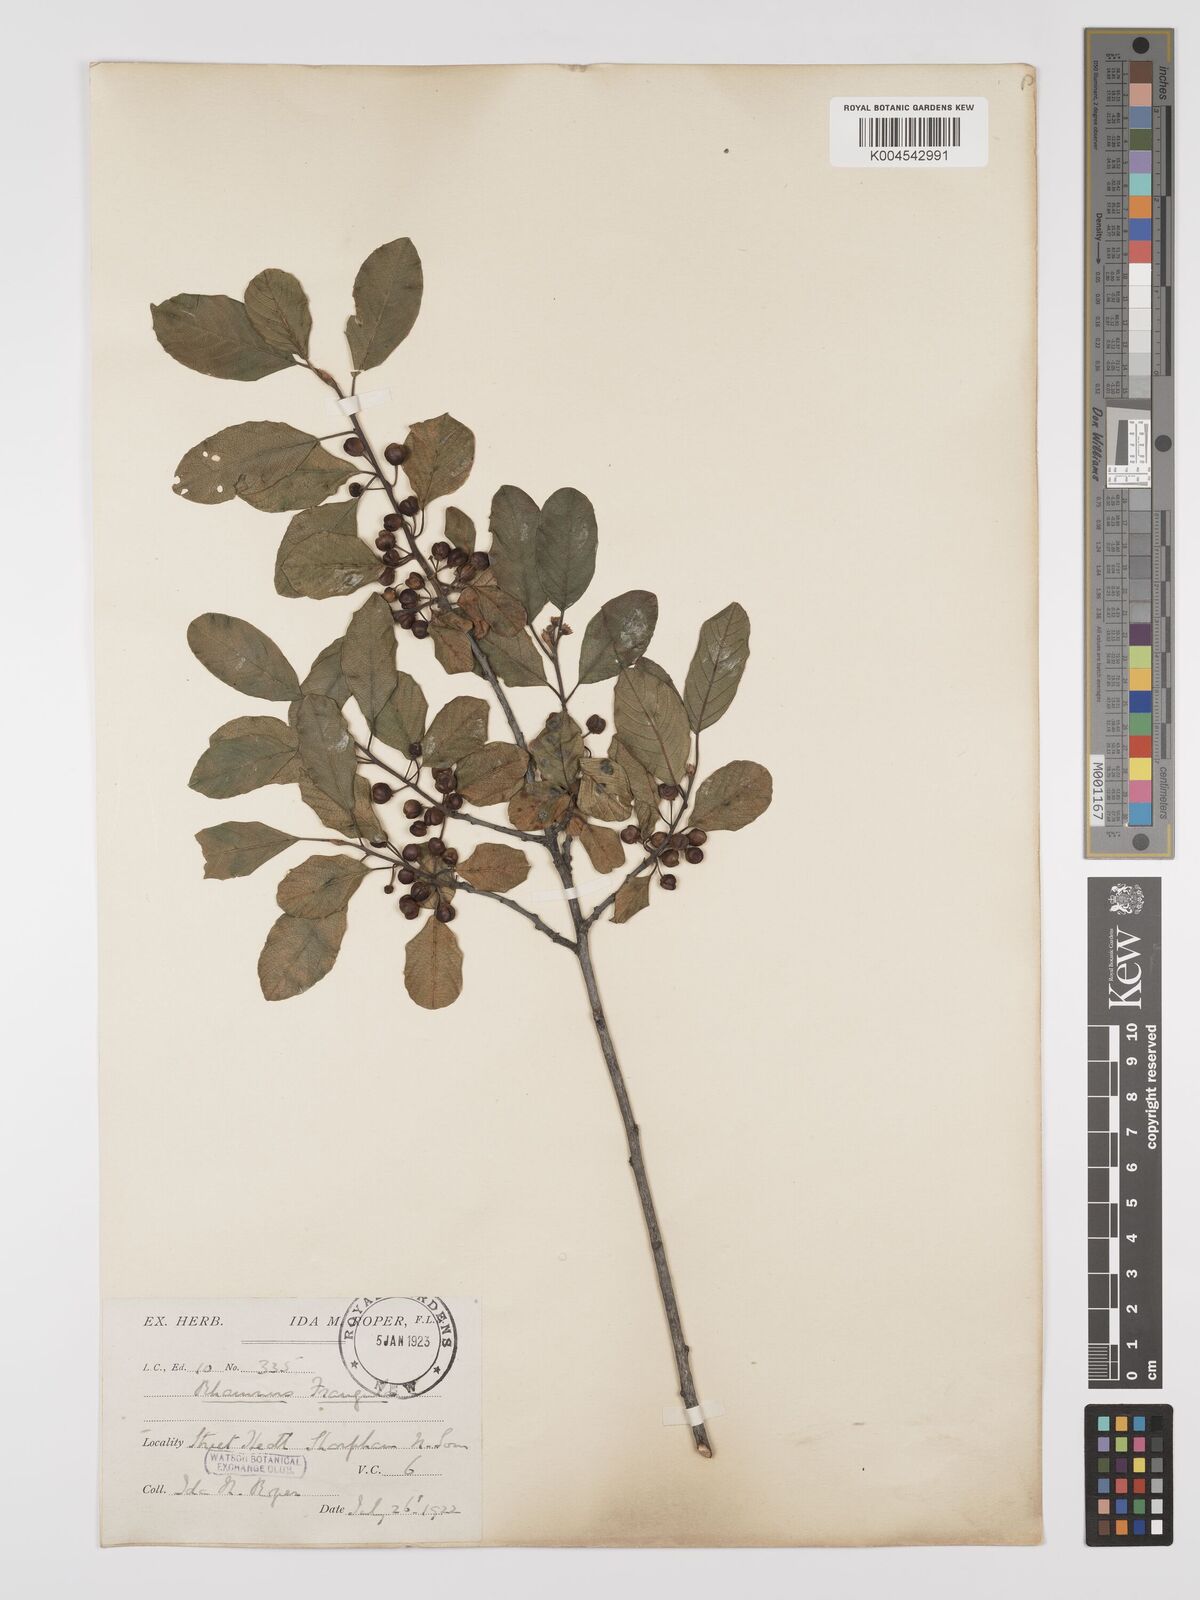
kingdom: Plantae
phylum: Tracheophyta
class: Magnoliopsida
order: Rosales
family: Rhamnaceae
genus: Frangula
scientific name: Frangula alnus
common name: Alder buckthorn
